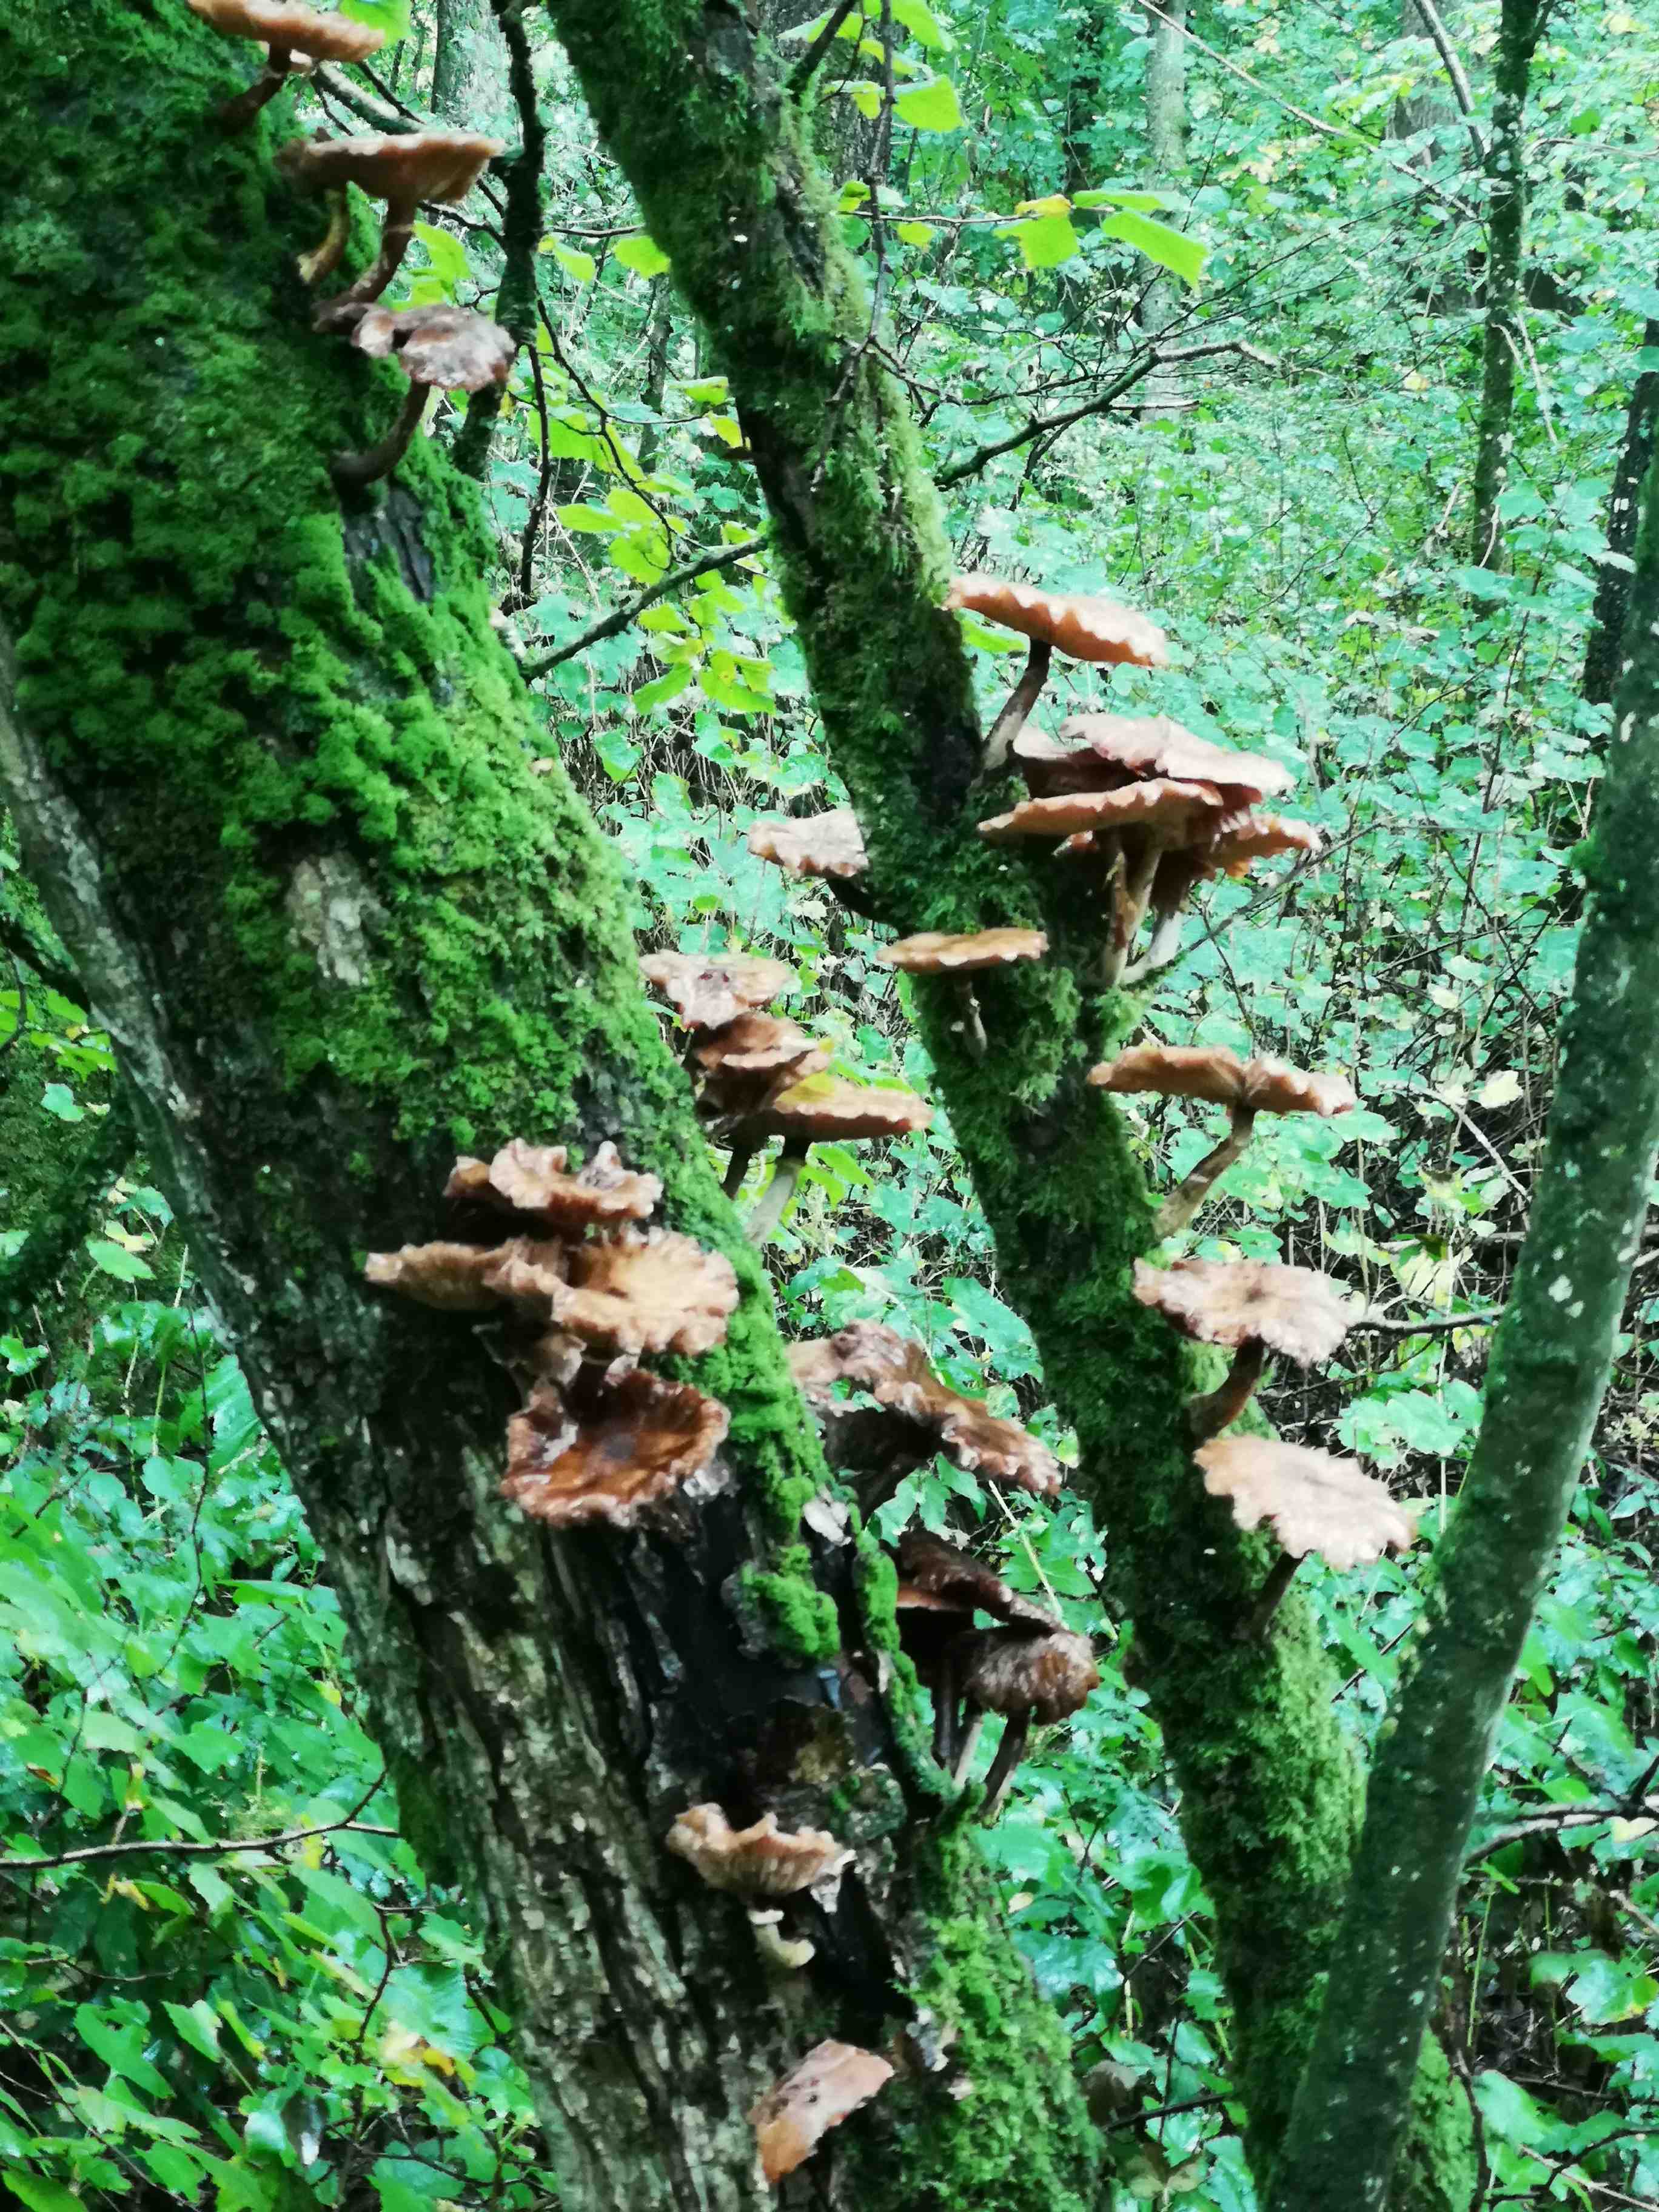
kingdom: Fungi
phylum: Basidiomycota
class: Agaricomycetes
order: Agaricales
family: Physalacriaceae
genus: Armillaria
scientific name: Armillaria lutea
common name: køllestokket honningsvamp
